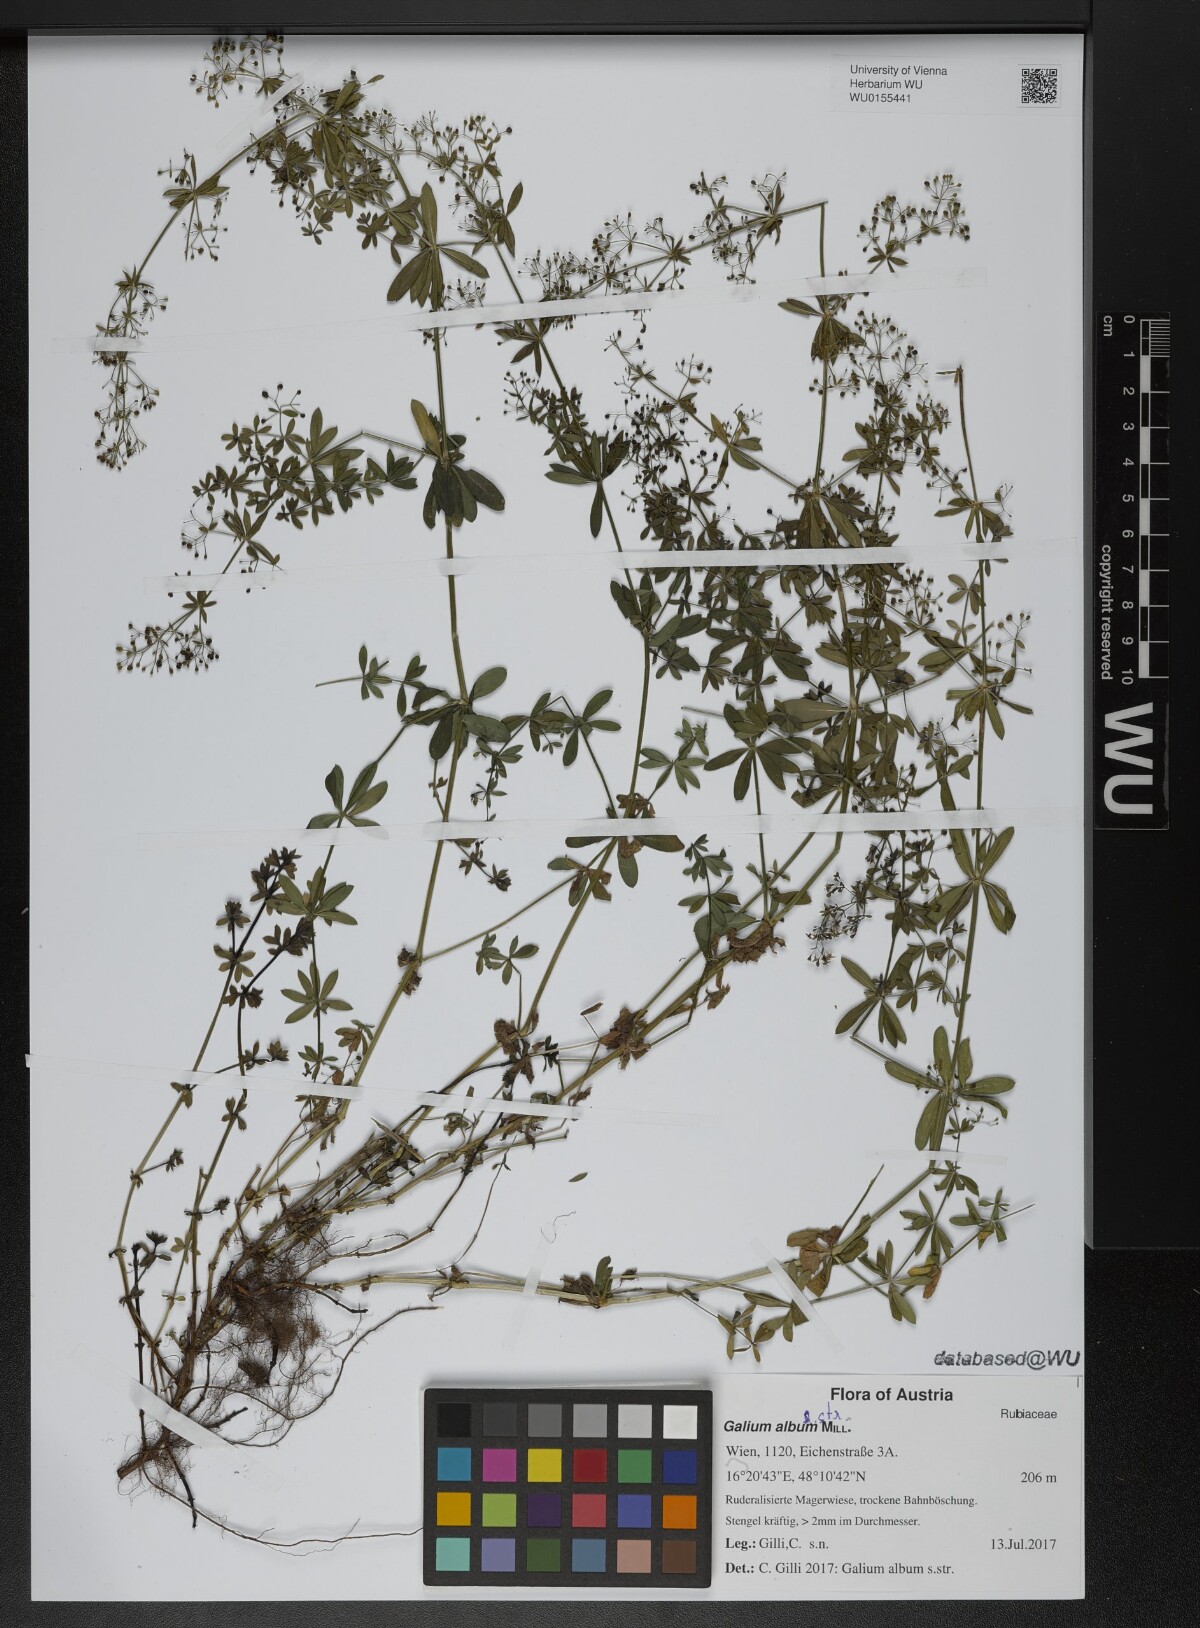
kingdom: Plantae
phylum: Tracheophyta
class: Magnoliopsida
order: Gentianales
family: Rubiaceae
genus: Galium
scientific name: Galium album
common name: White bedstraw
